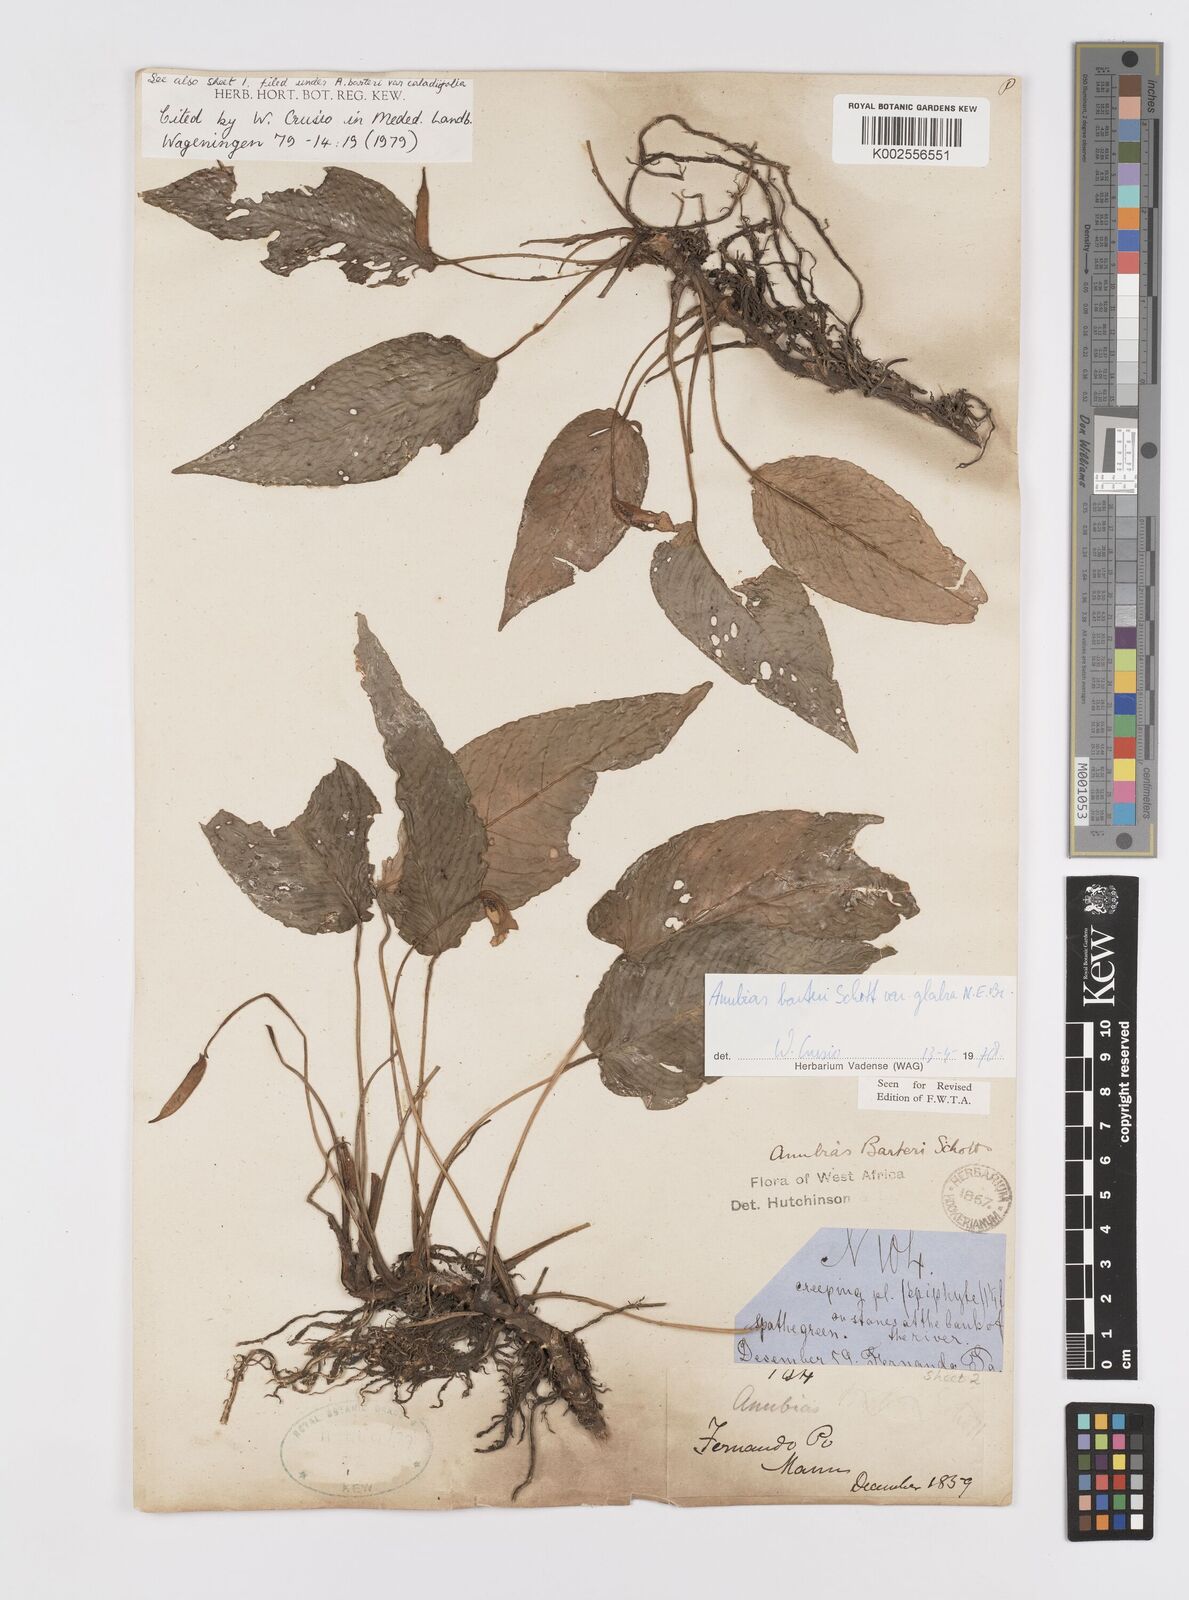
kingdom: Plantae
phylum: Tracheophyta
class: Liliopsida
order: Alismatales
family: Araceae
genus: Anubias
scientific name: Anubias barteri
